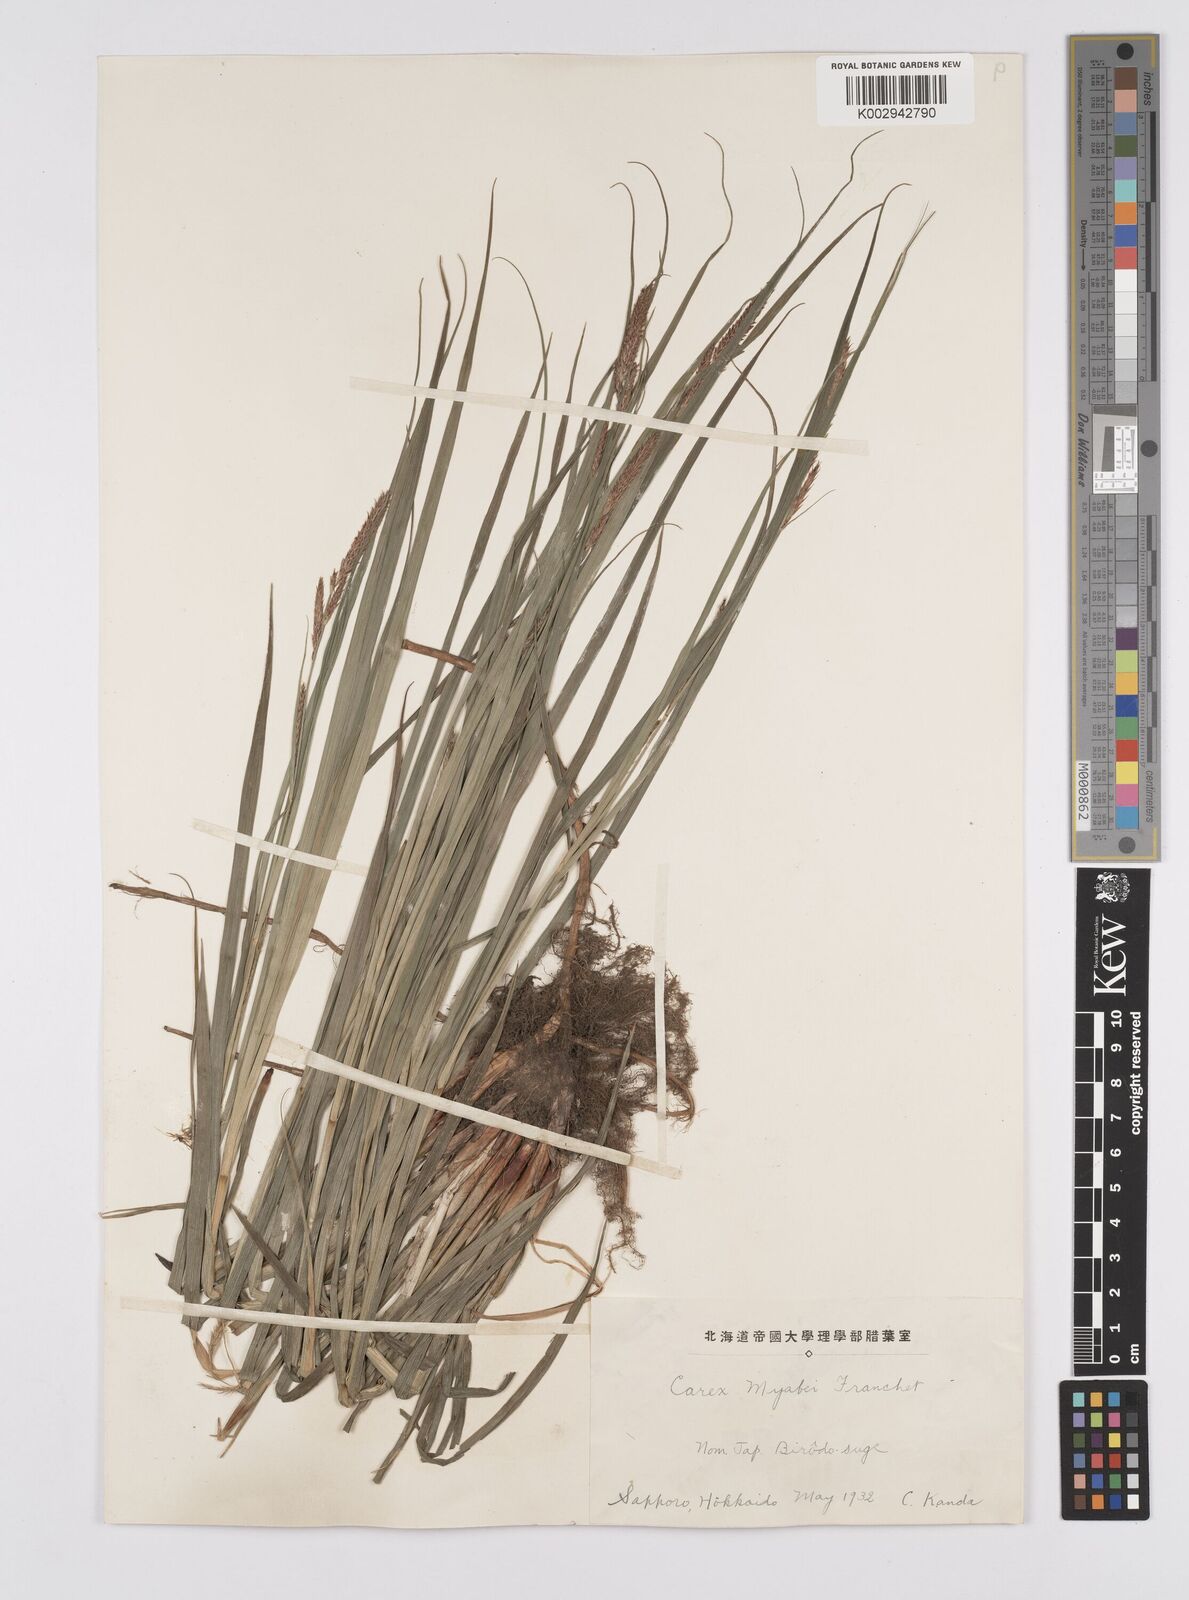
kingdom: Plantae
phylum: Tracheophyta
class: Liliopsida
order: Poales
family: Cyperaceae
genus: Carex
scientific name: Carex fedia
